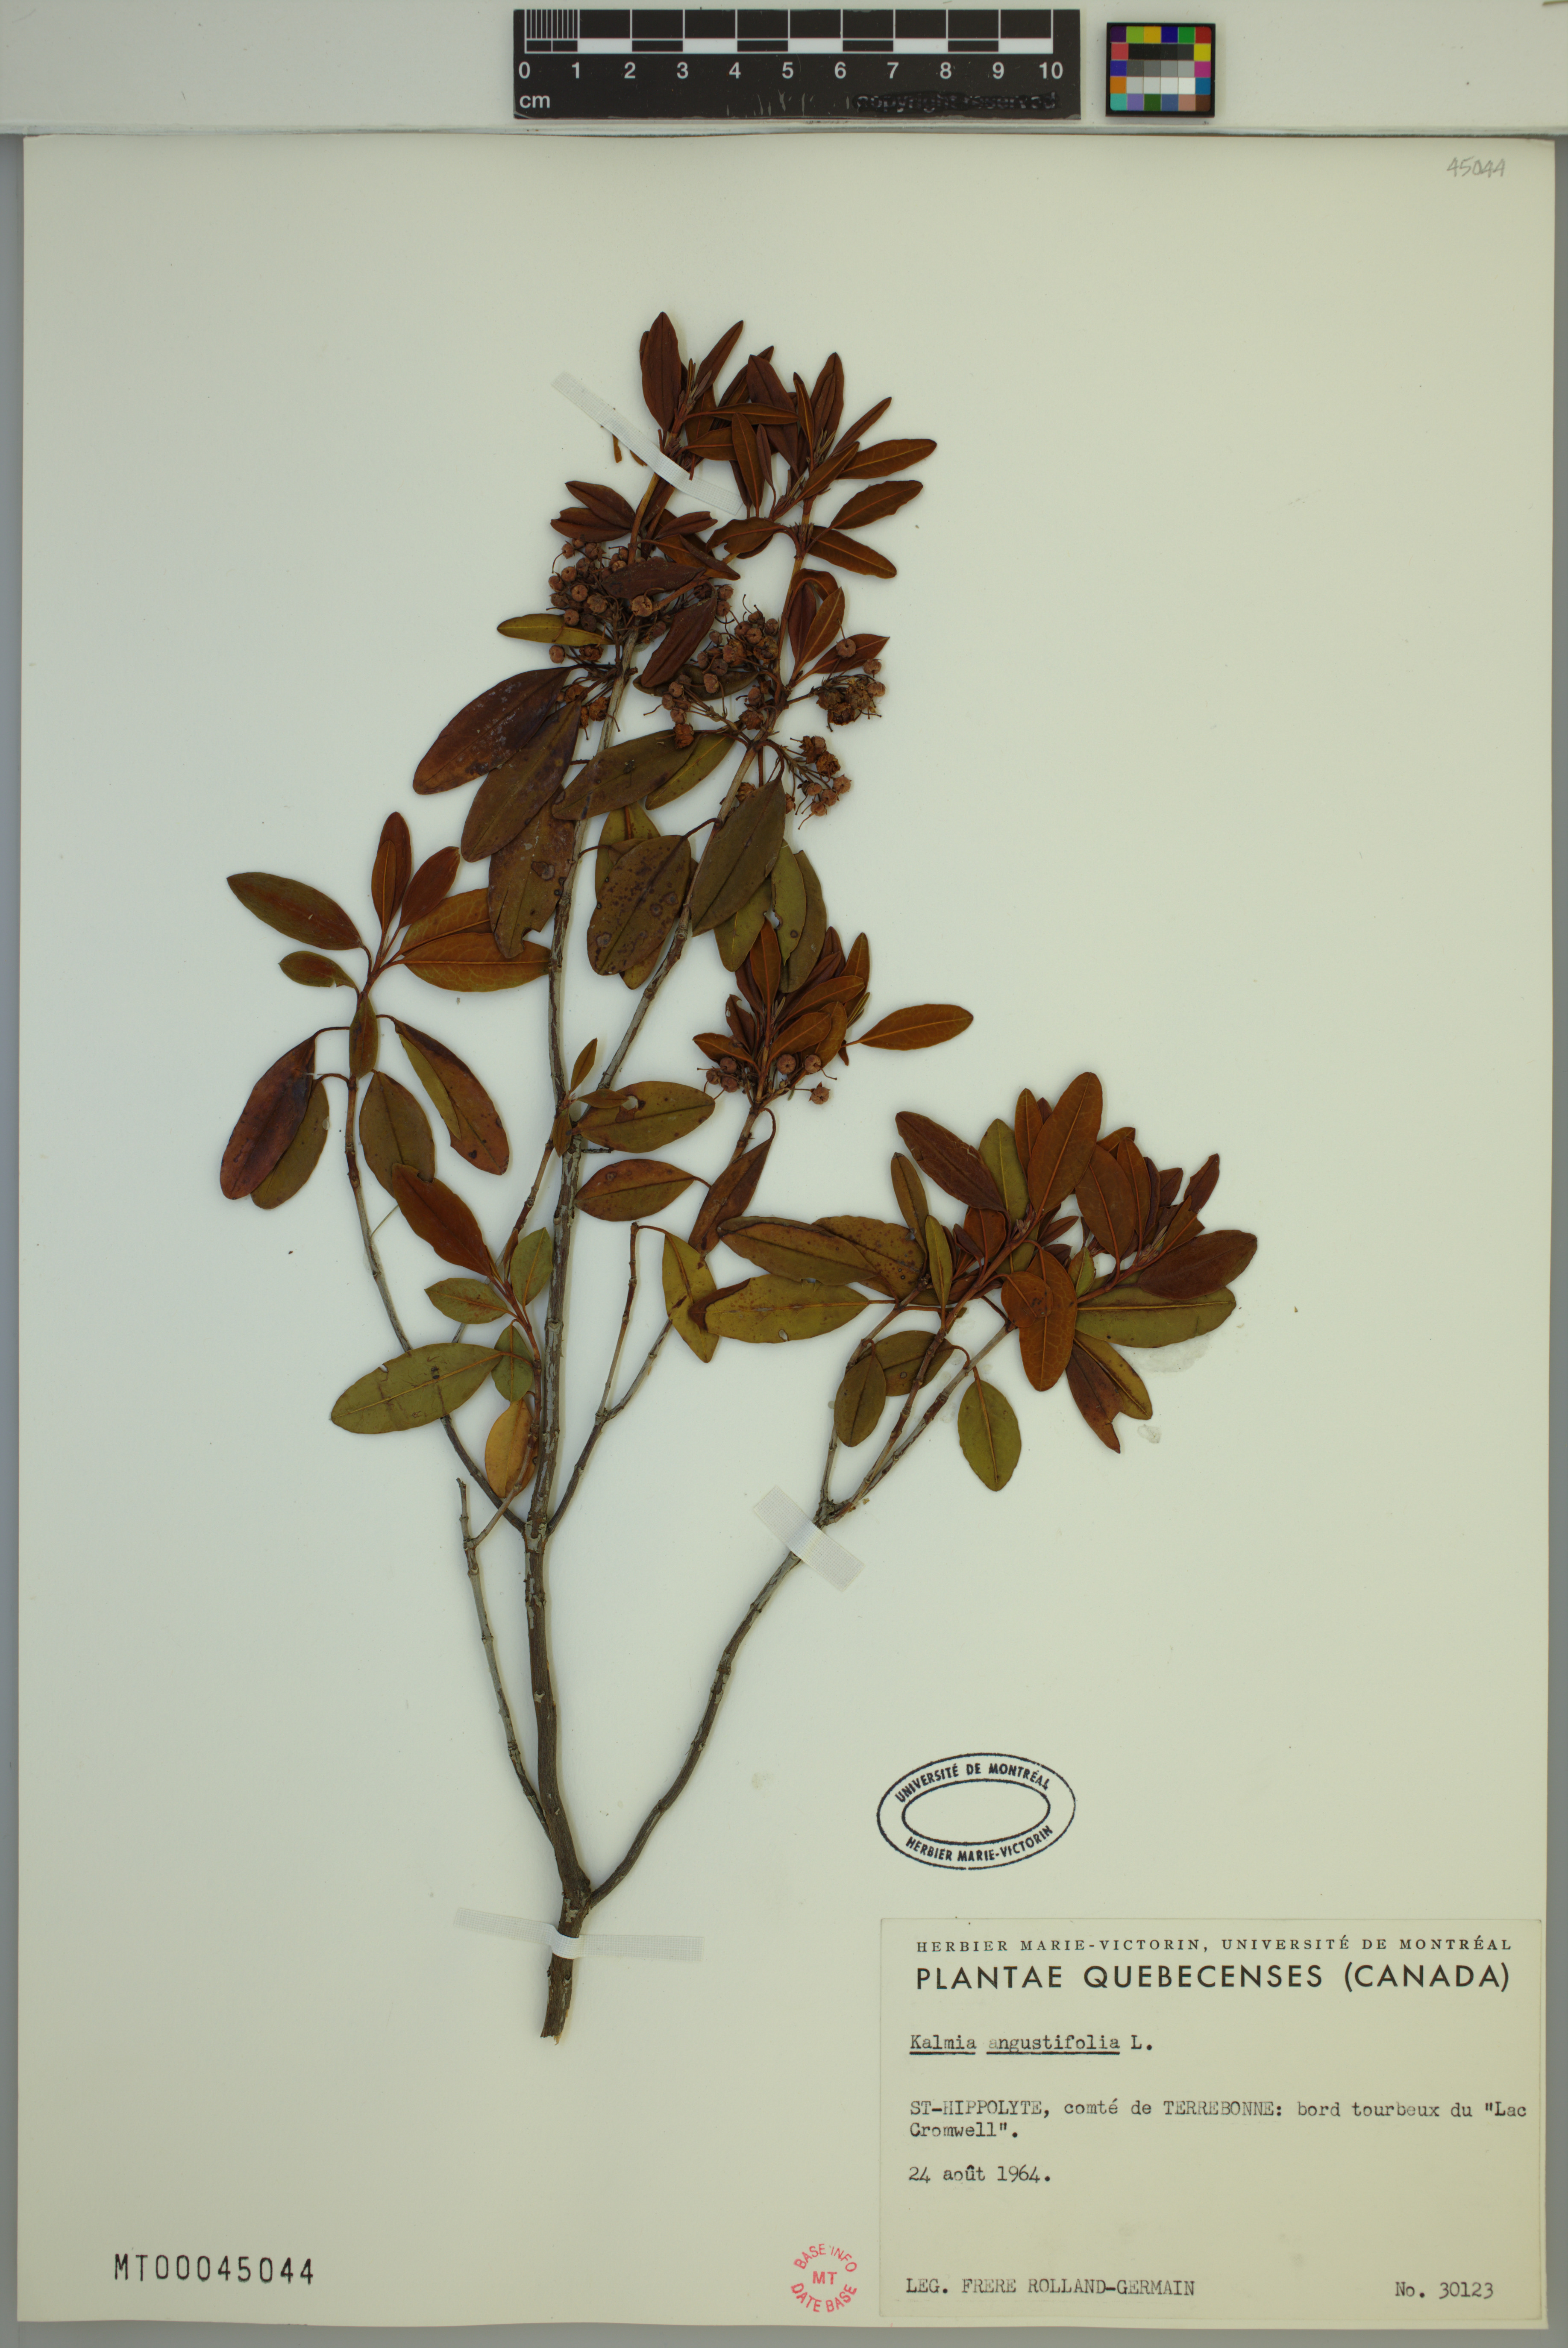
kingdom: Plantae
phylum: Tracheophyta
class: Magnoliopsida
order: Ericales
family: Ericaceae
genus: Kalmia
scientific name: Kalmia angustifolia
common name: Sheep-laurel
